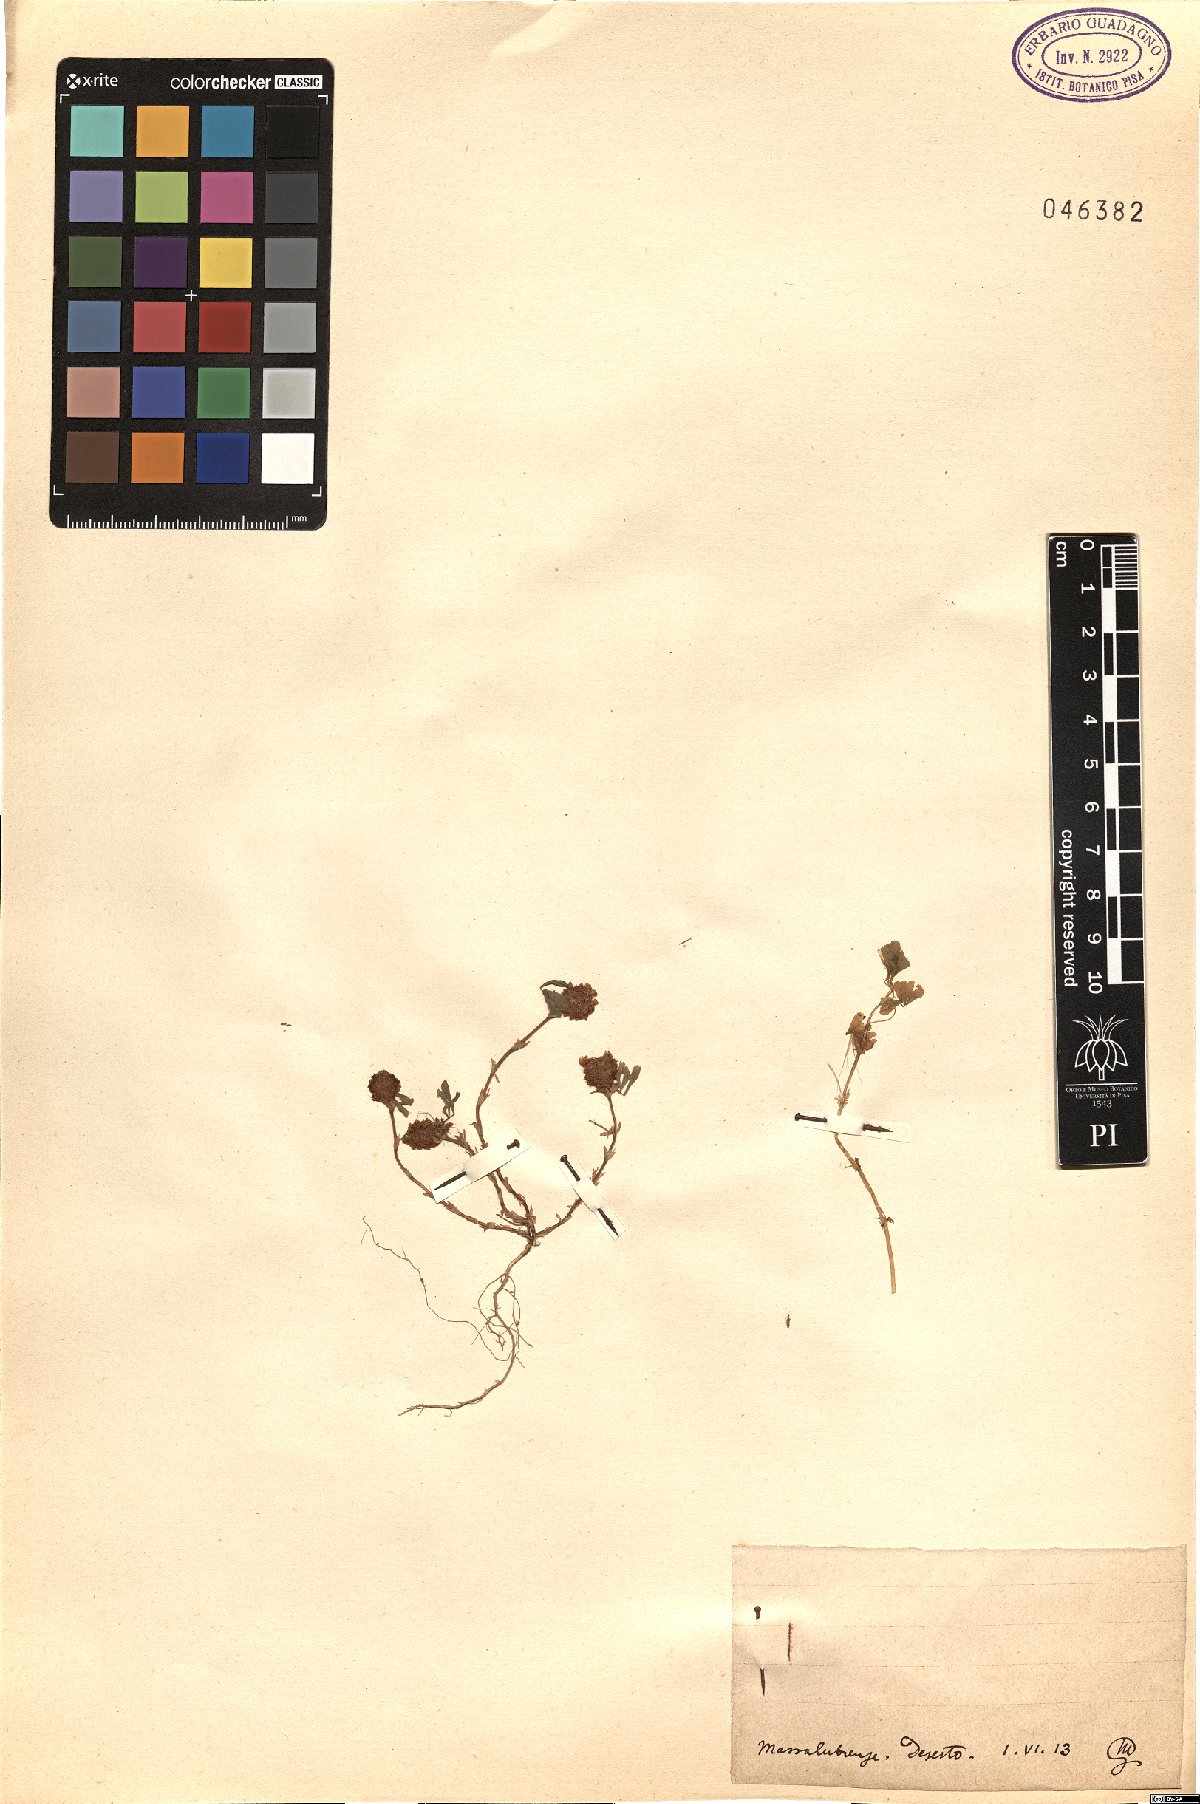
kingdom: Plantae
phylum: Tracheophyta
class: Magnoliopsida
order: Fabales
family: Fabaceae
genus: Trifolium
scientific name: Trifolium
